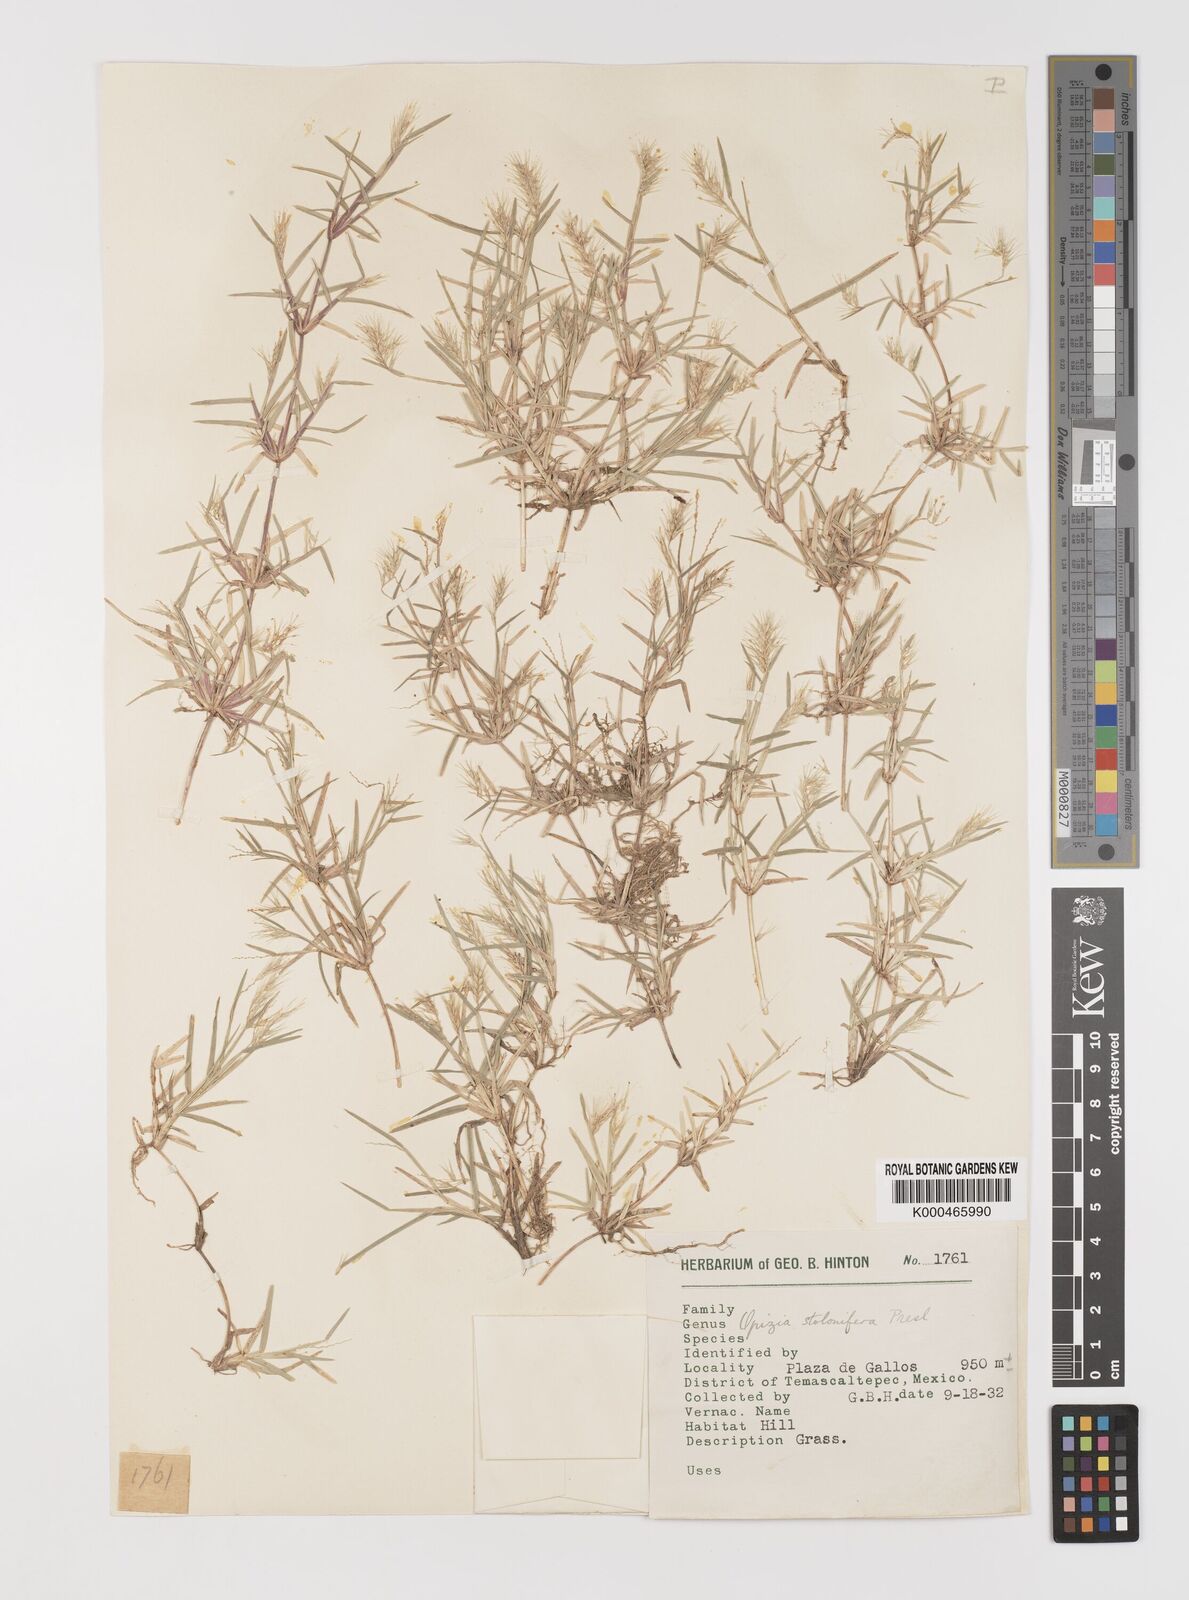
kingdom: Plantae
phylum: Tracheophyta
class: Liliopsida
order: Poales
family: Poaceae
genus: Bouteloua
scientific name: Bouteloua dimorpha
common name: Acapulco grass
